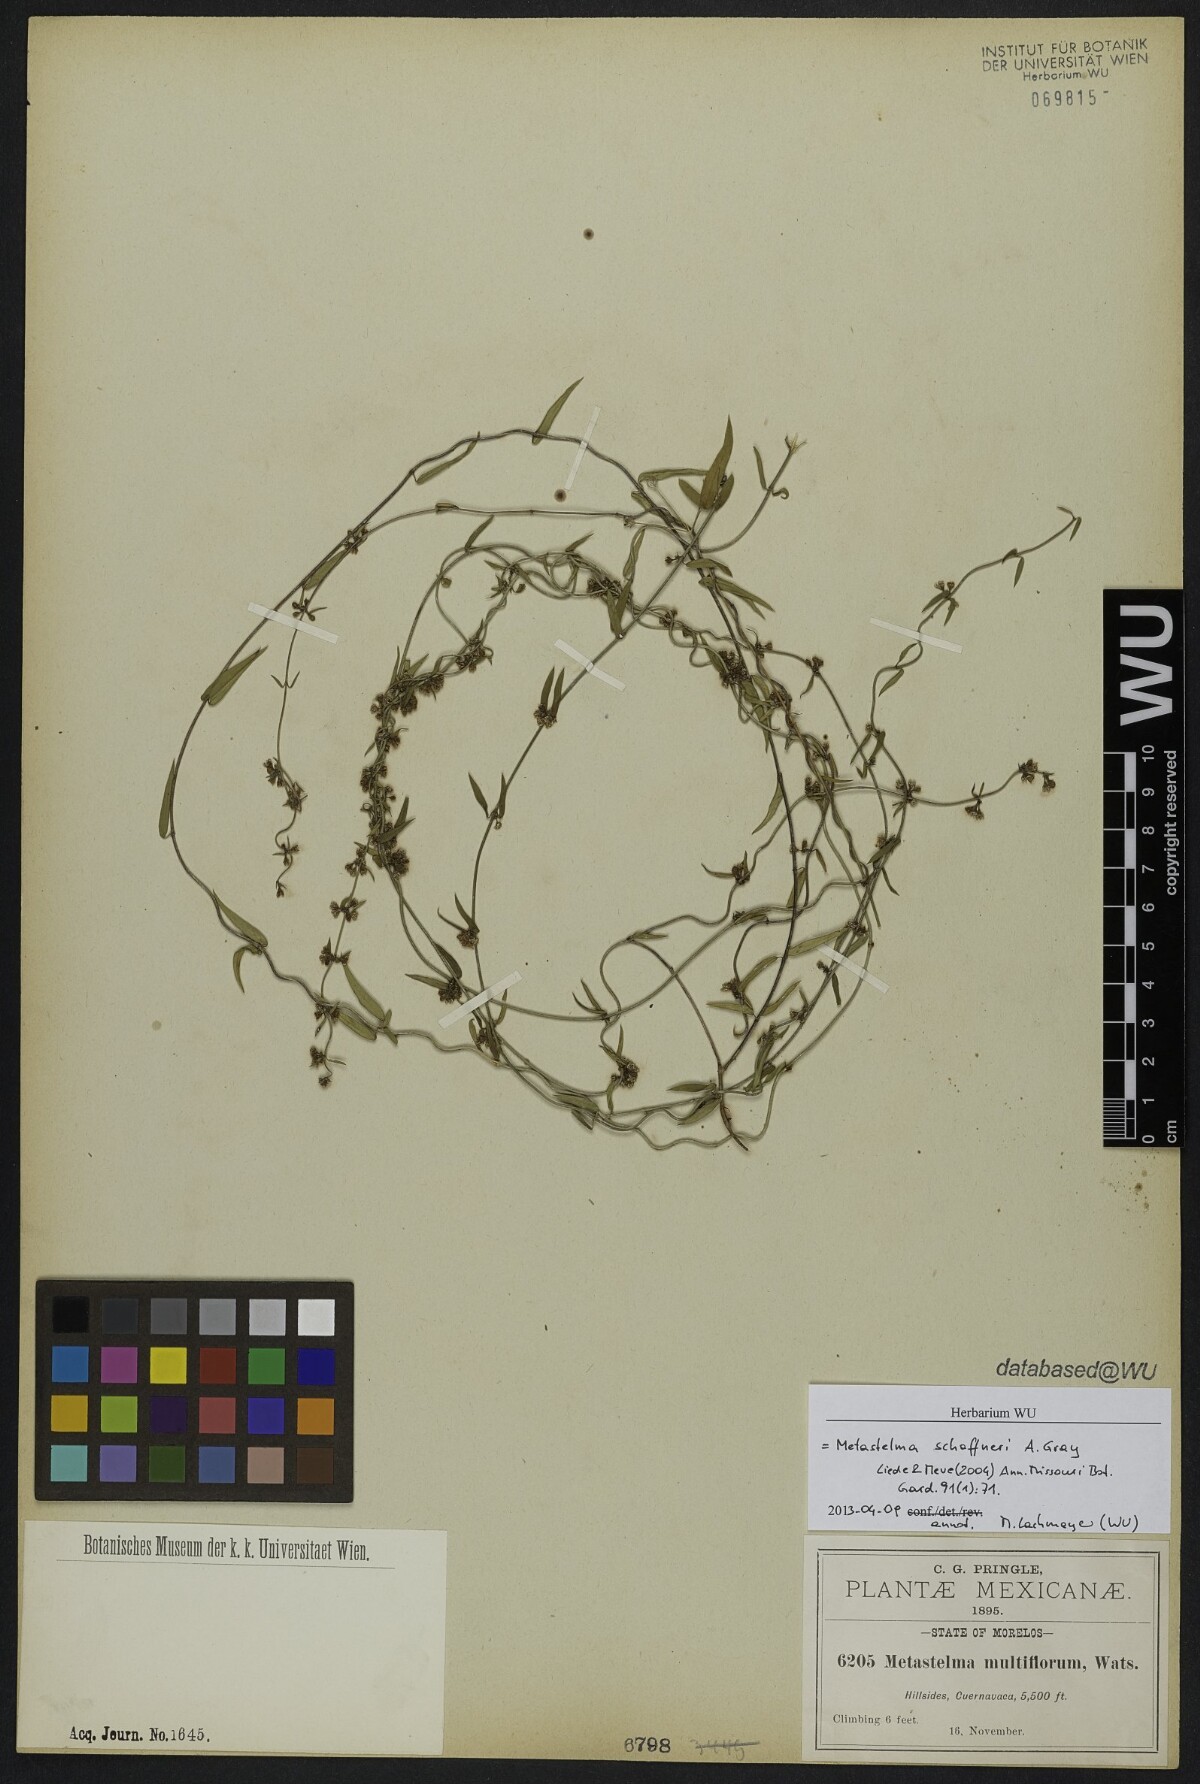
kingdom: Plantae
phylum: Tracheophyta
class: Magnoliopsida
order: Gentianales
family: Apocynaceae
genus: Metastelma
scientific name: Metastelma schaffneri
